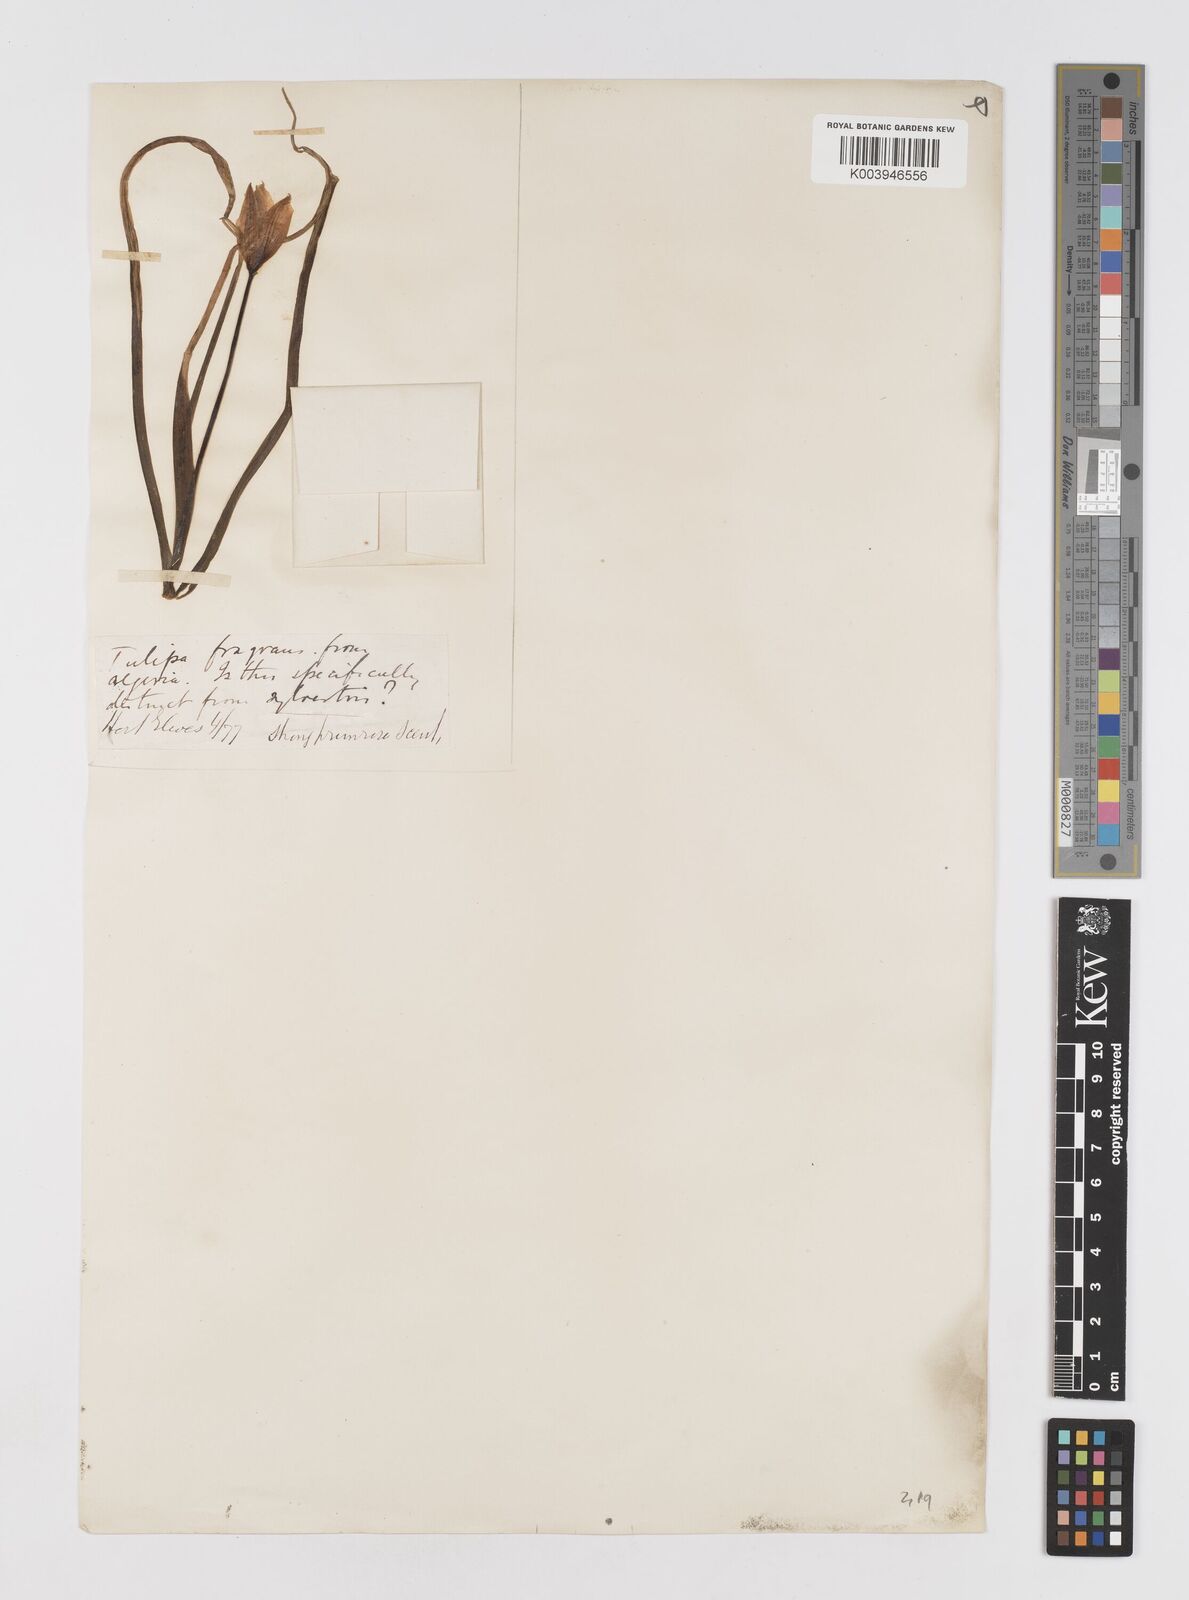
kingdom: Plantae
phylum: Tracheophyta
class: Liliopsida
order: Liliales
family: Liliaceae
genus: Tulipa
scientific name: Tulipa sylvestris
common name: Wild tulip
